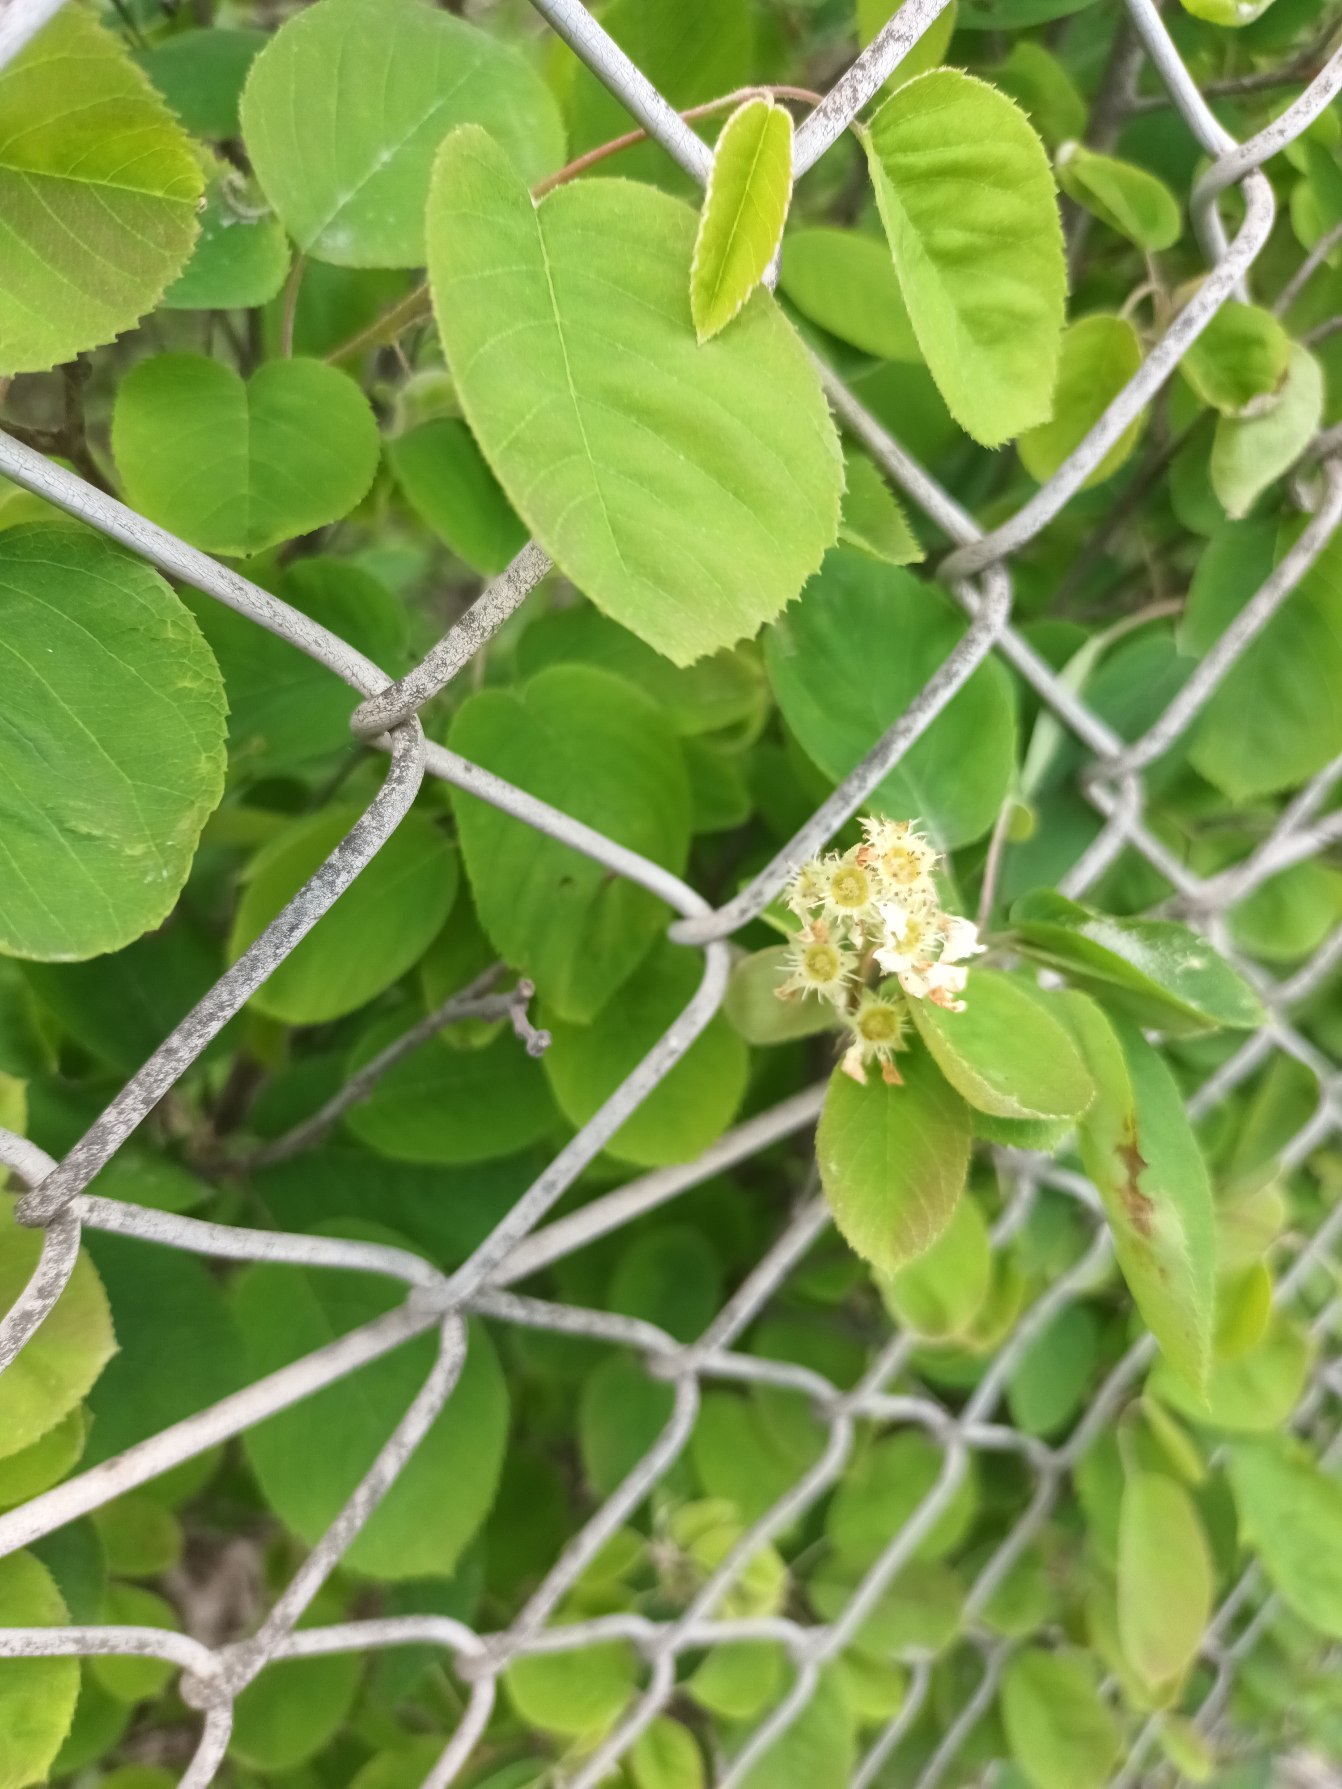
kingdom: Plantae
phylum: Tracheophyta
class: Magnoliopsida
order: Rosales
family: Rosaceae
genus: Amelanchier
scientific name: Amelanchier humilis
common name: Aks-bærmispel
